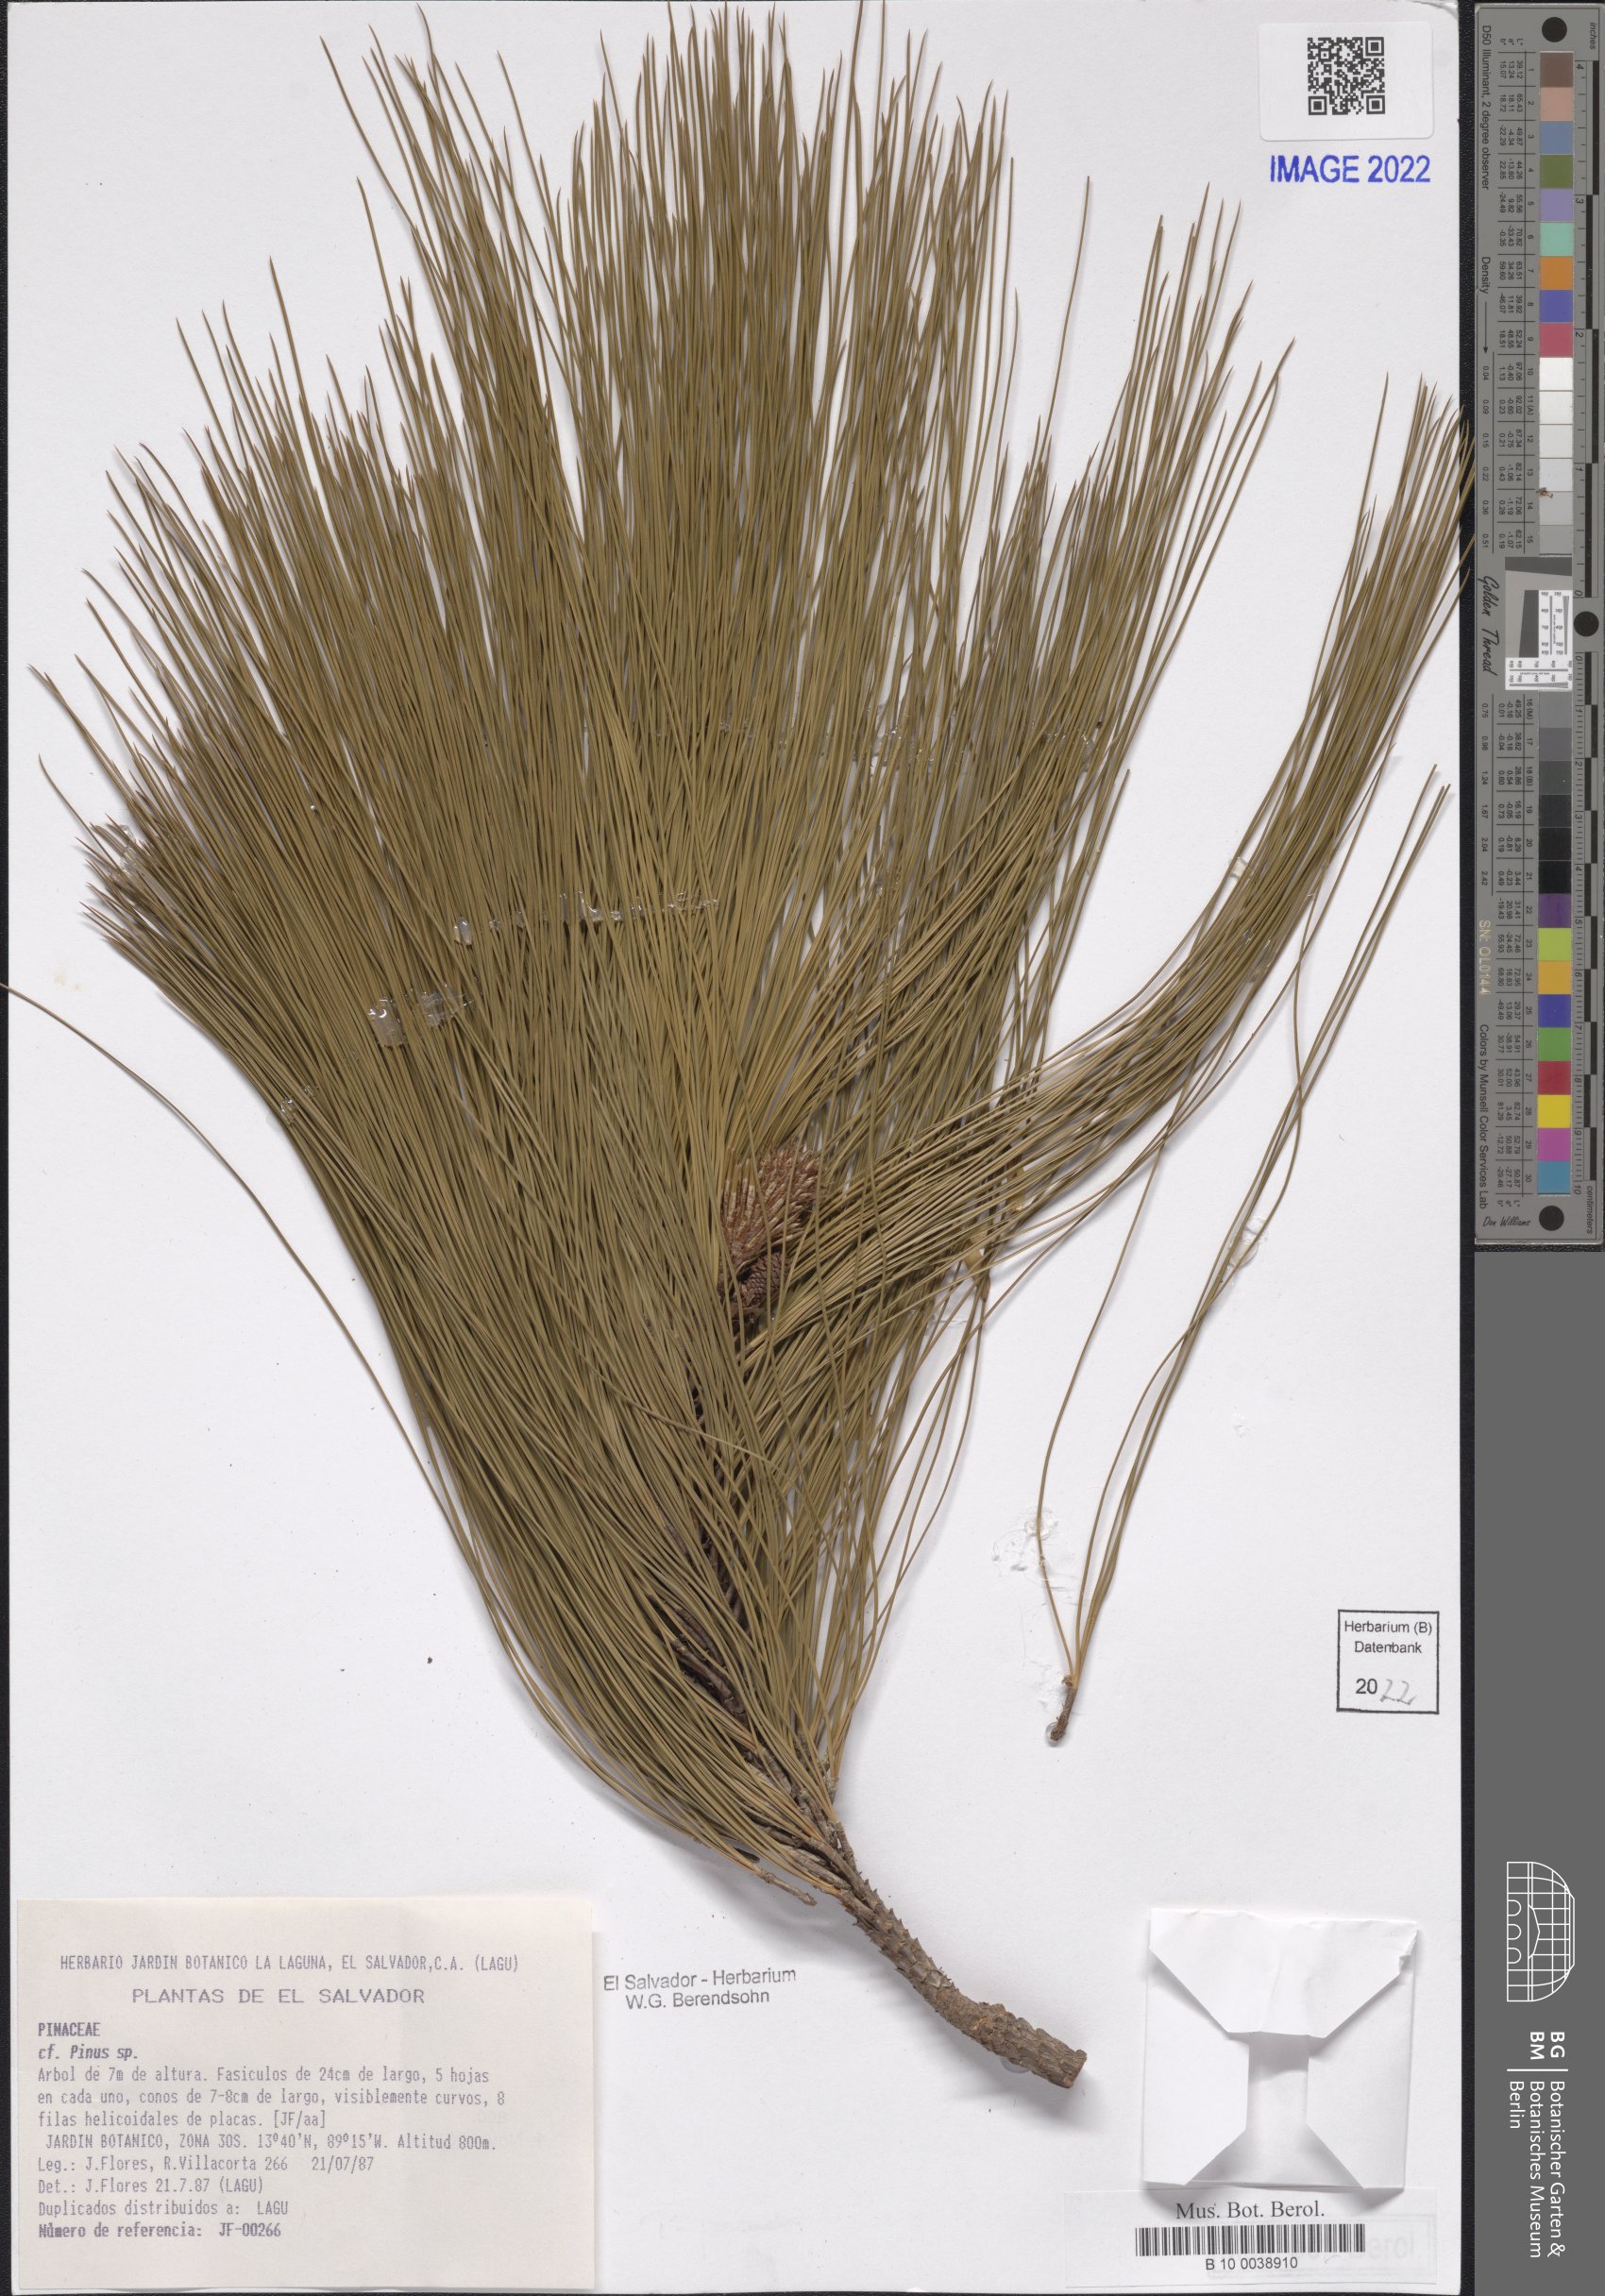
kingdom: Plantae
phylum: Tracheophyta
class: Pinopsida
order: Pinales
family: Pinaceae
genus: Pinus
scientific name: Pinus
